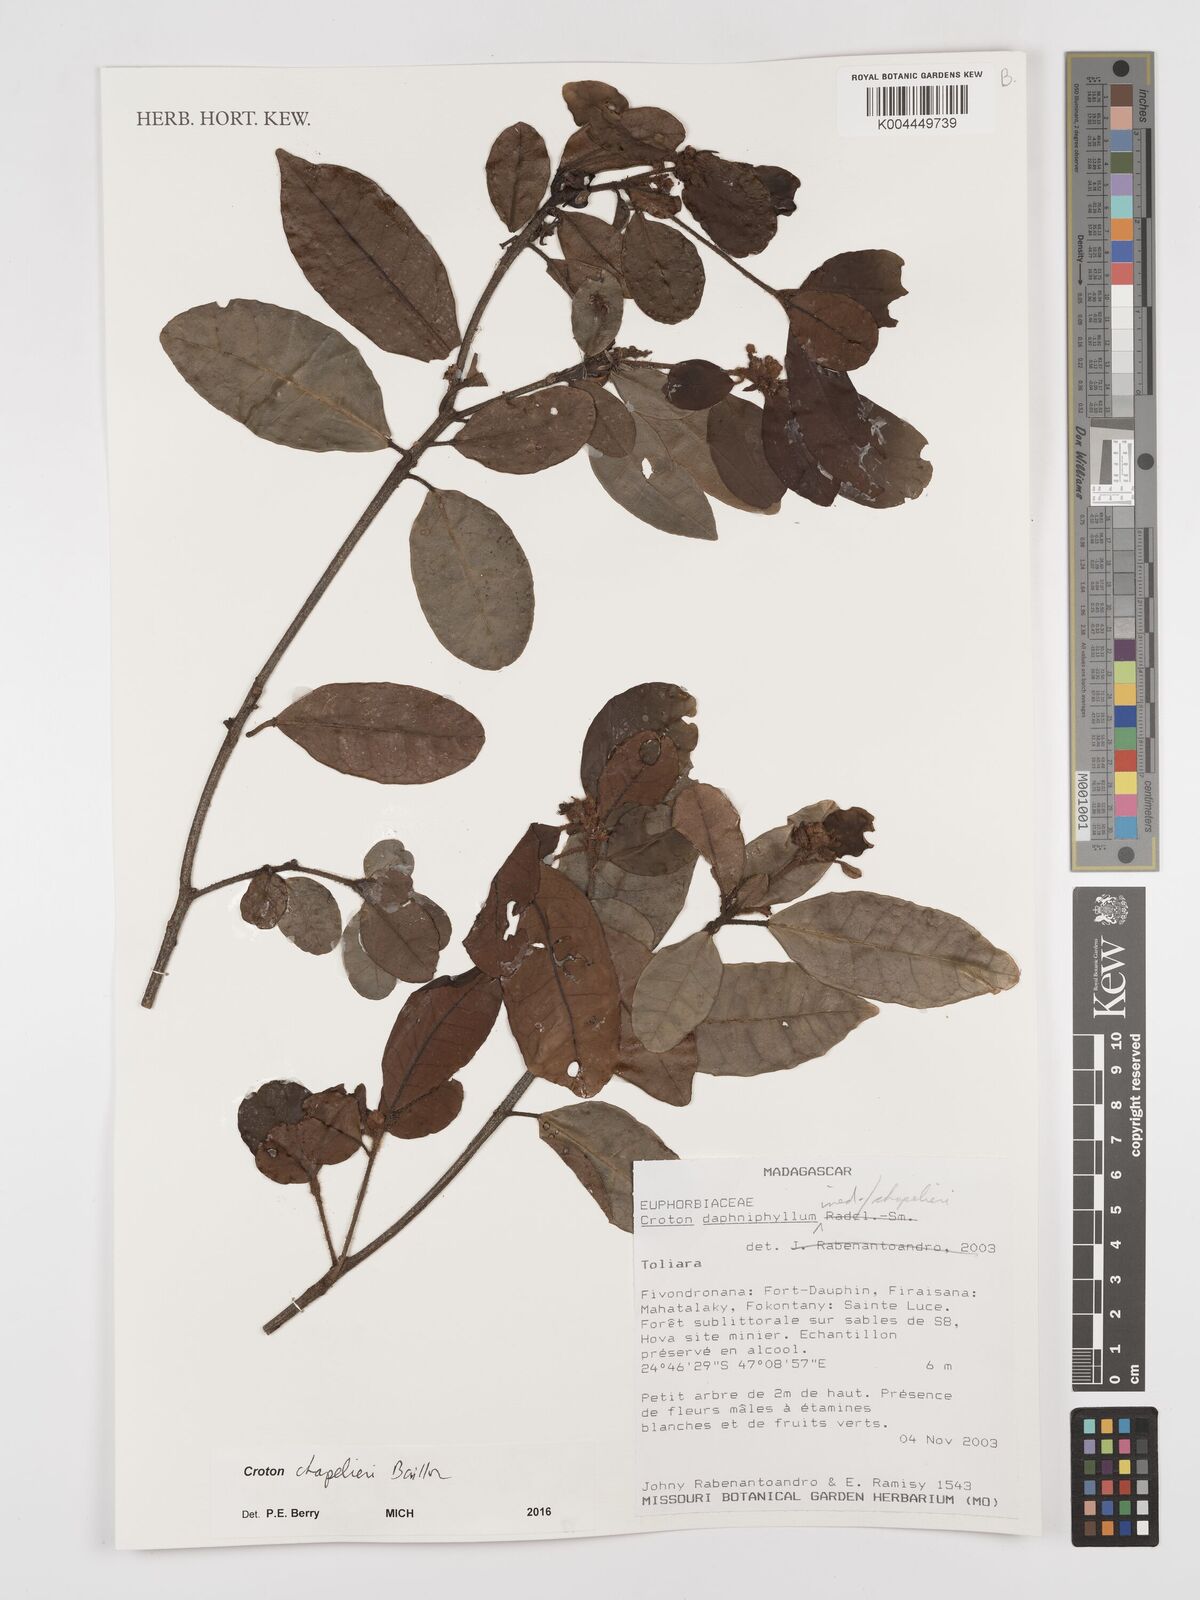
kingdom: Plantae
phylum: Tracheophyta
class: Magnoliopsida
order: Malpighiales
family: Euphorbiaceae
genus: Croton
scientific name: Croton chapelieri
